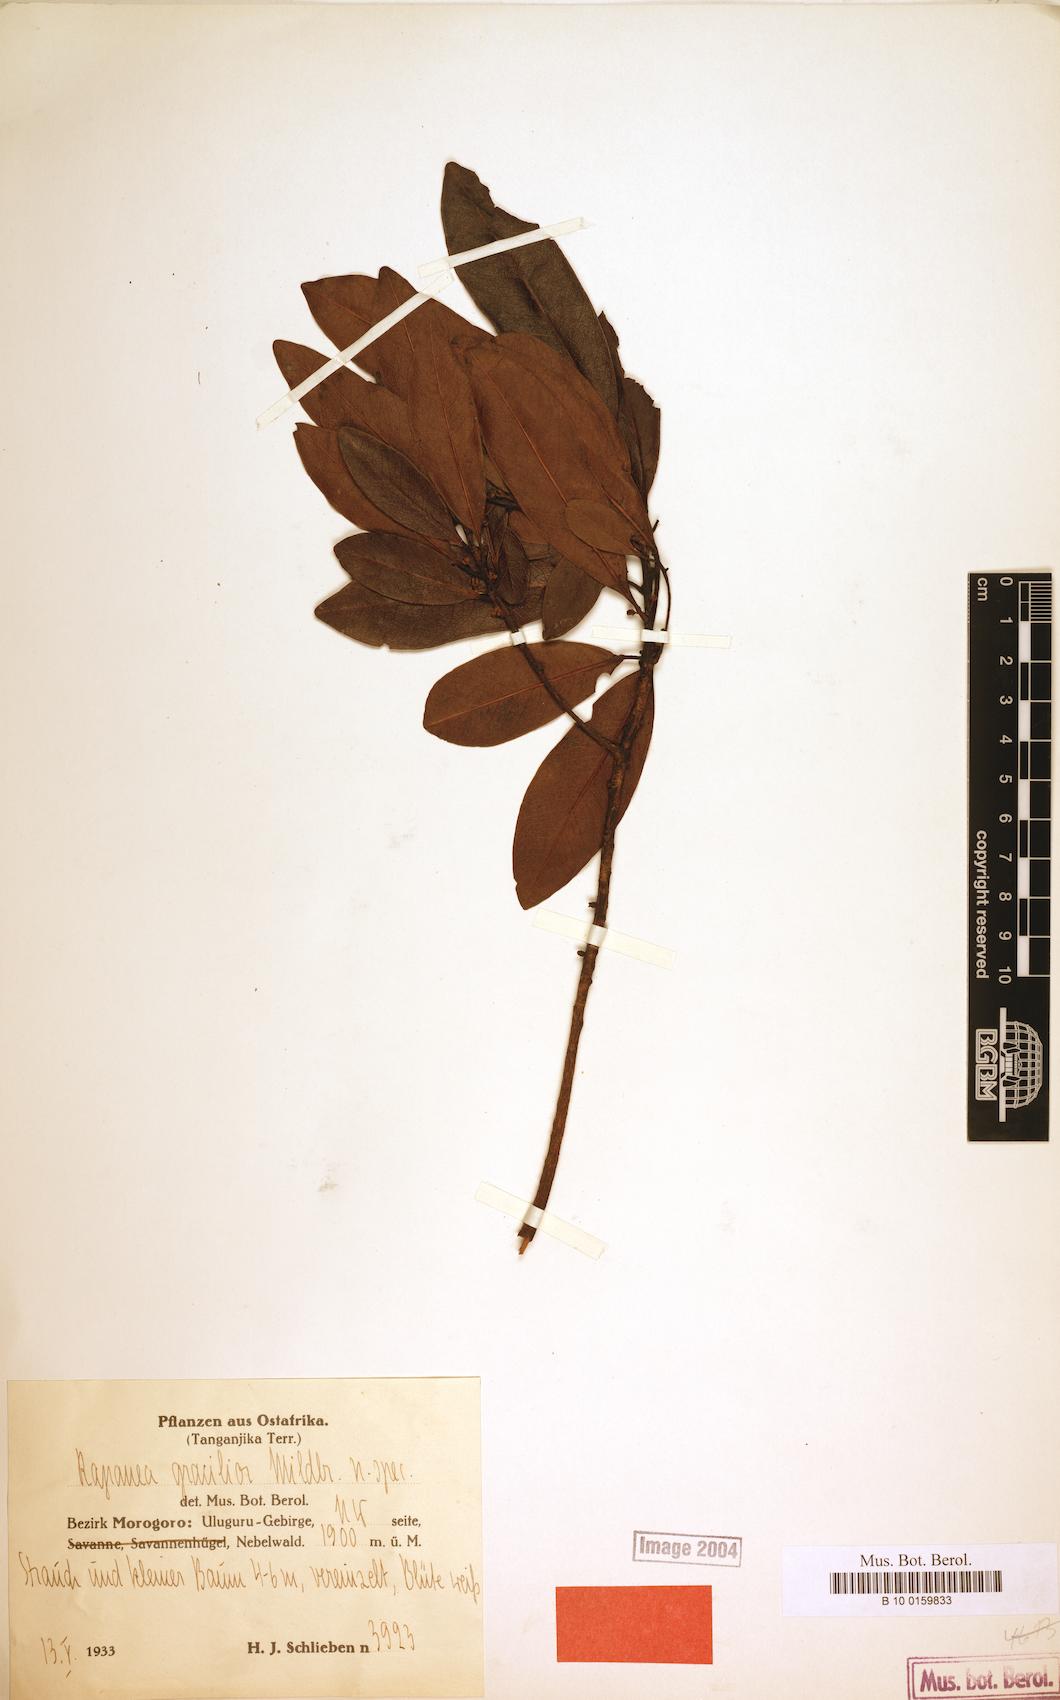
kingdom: Plantae
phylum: Tracheophyta
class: Magnoliopsida
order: Ericales
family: Primulaceae
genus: Myrsine
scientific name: Myrsine melanophloeos
